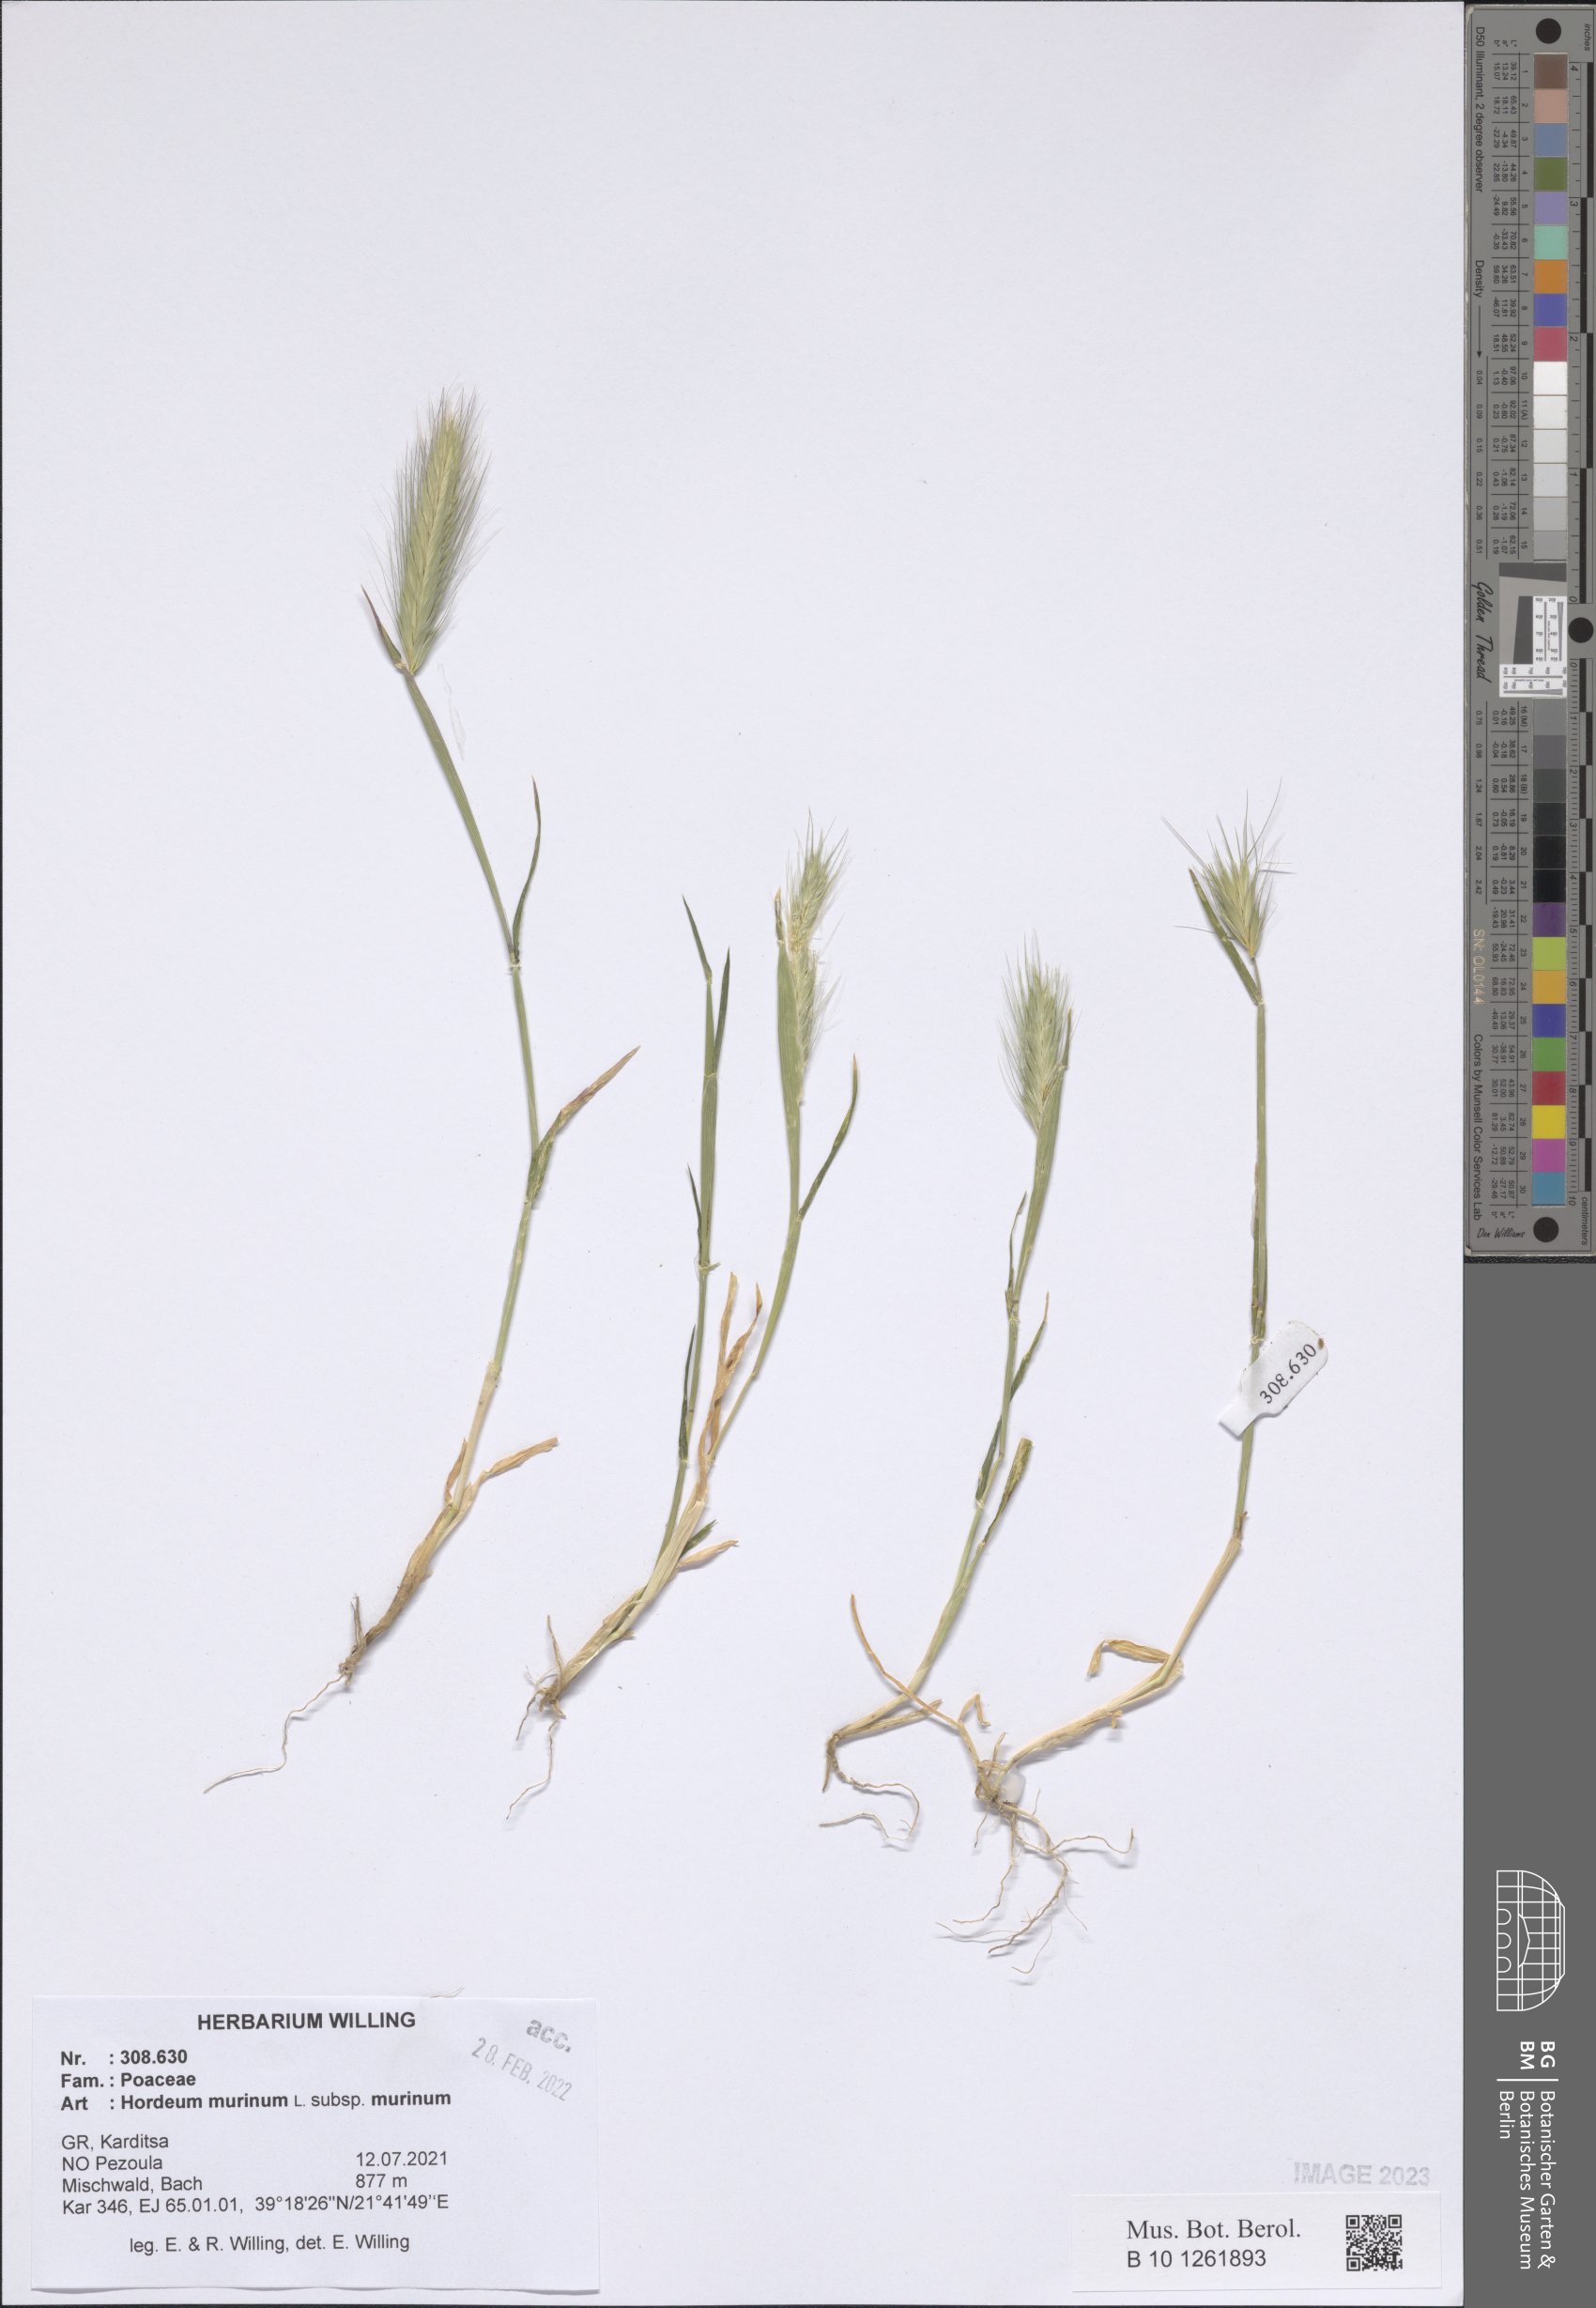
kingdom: Plantae
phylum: Tracheophyta
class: Liliopsida
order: Poales
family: Poaceae
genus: Hordeum
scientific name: Hordeum murinum
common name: Wall barley
